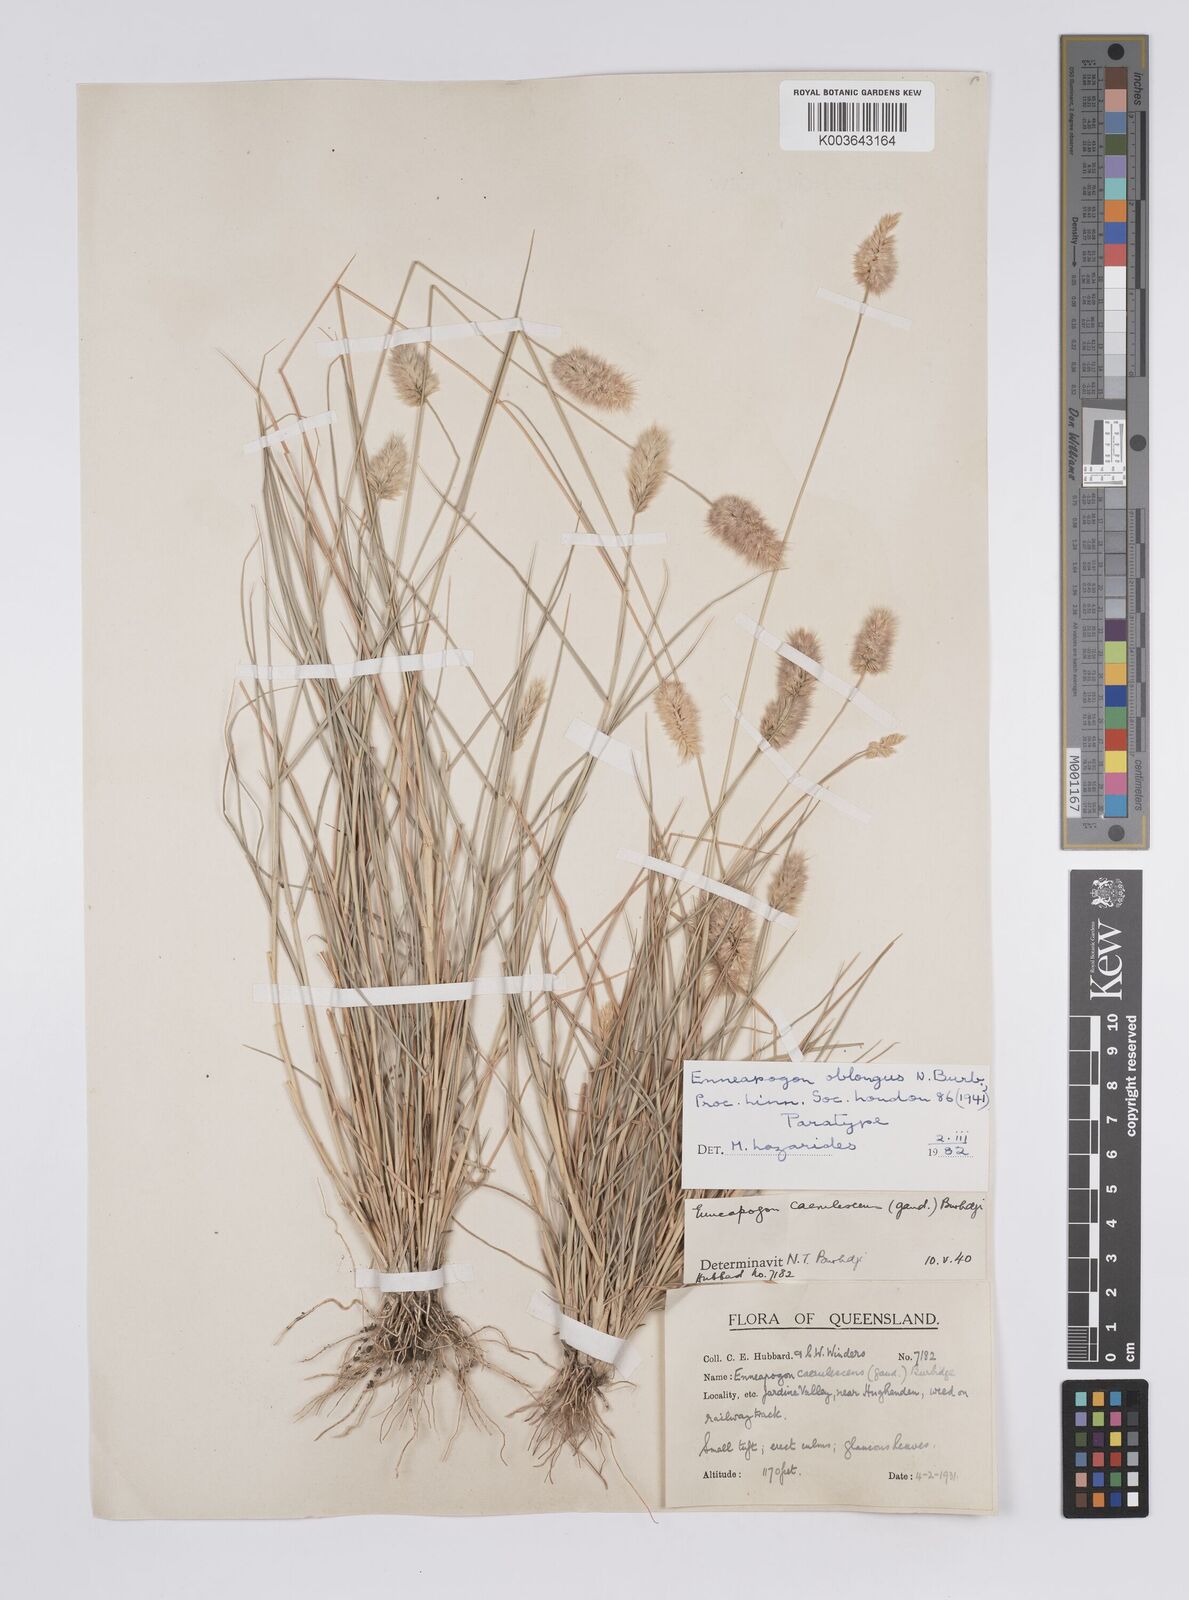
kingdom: Plantae
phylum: Tracheophyta
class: Liliopsida
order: Poales
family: Poaceae
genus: Enneapogon
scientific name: Enneapogon lindleyanus
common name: Conetop nineawn
